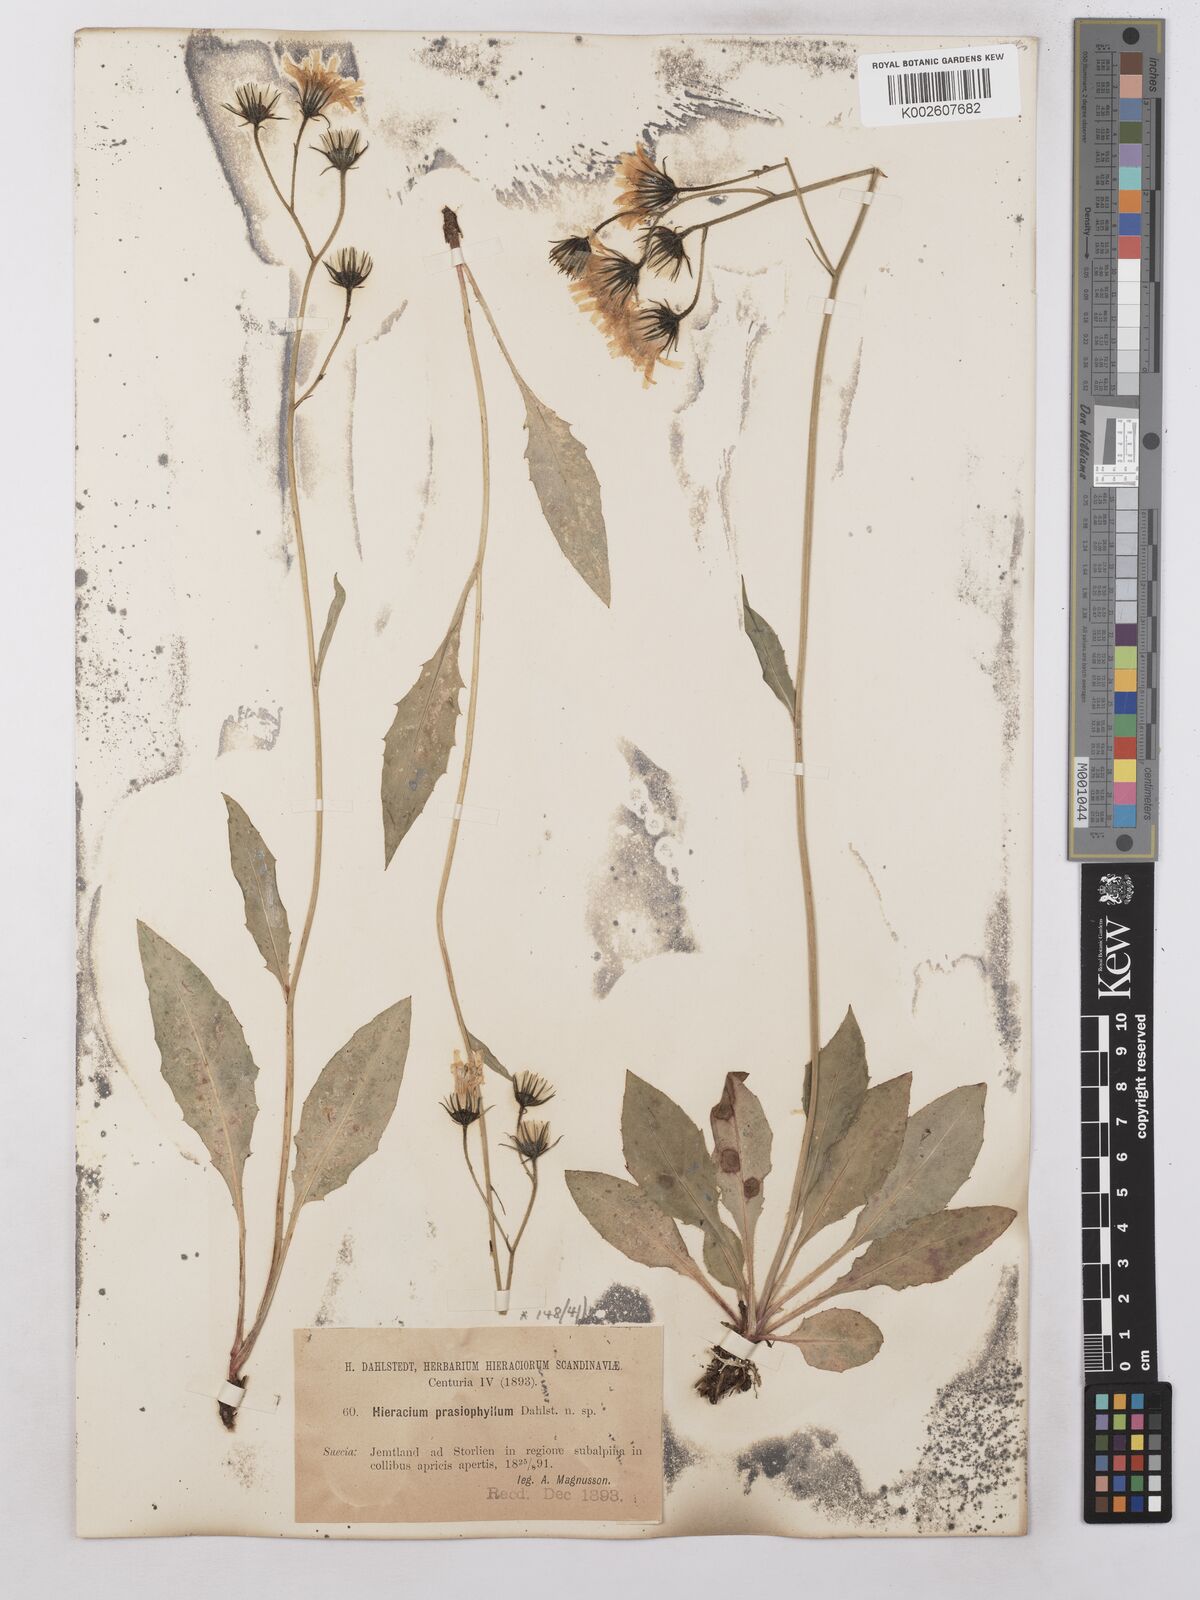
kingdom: Plantae
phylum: Tracheophyta
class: Magnoliopsida
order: Asterales
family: Asteraceae
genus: Hieracium
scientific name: Hieracium subramosum
